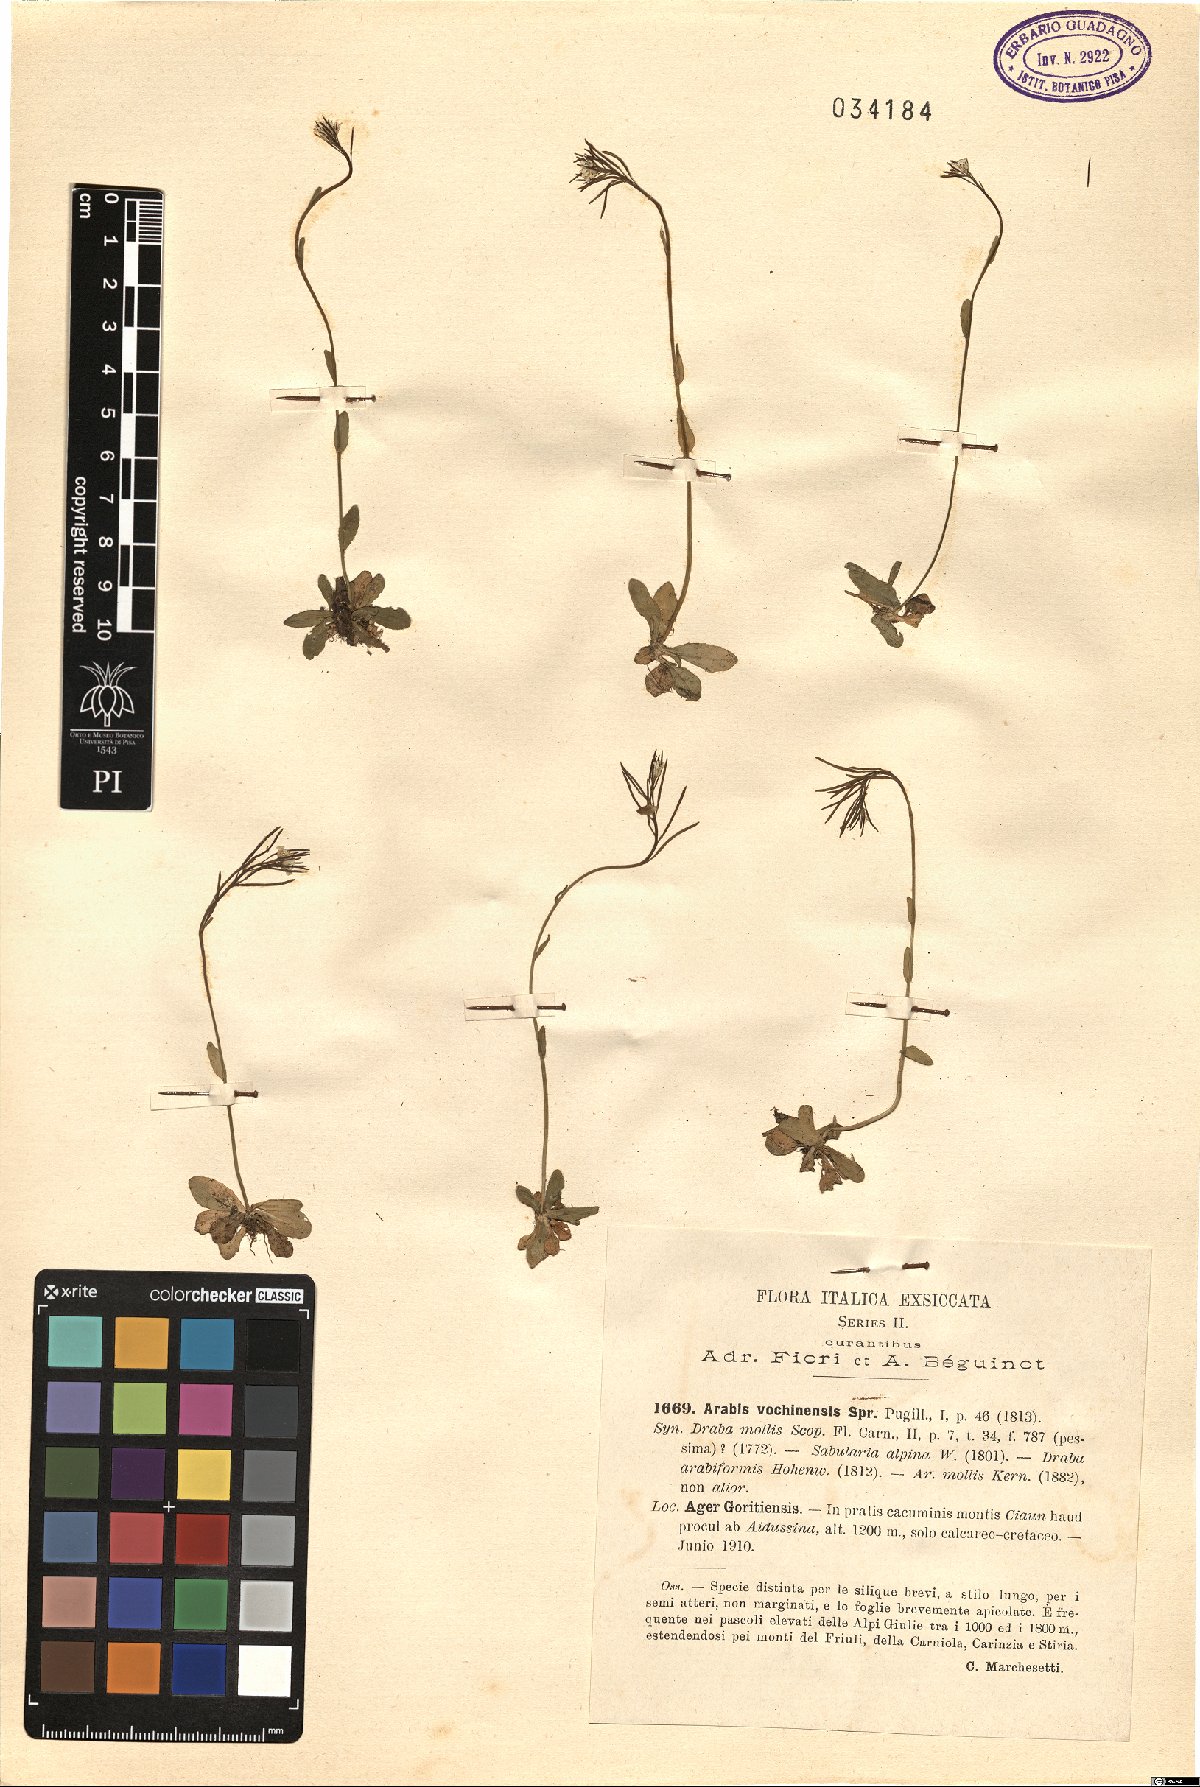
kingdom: Plantae
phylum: Tracheophyta
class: Magnoliopsida
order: Brassicales
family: Brassicaceae
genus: Arabis
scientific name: Arabis vochinensis
